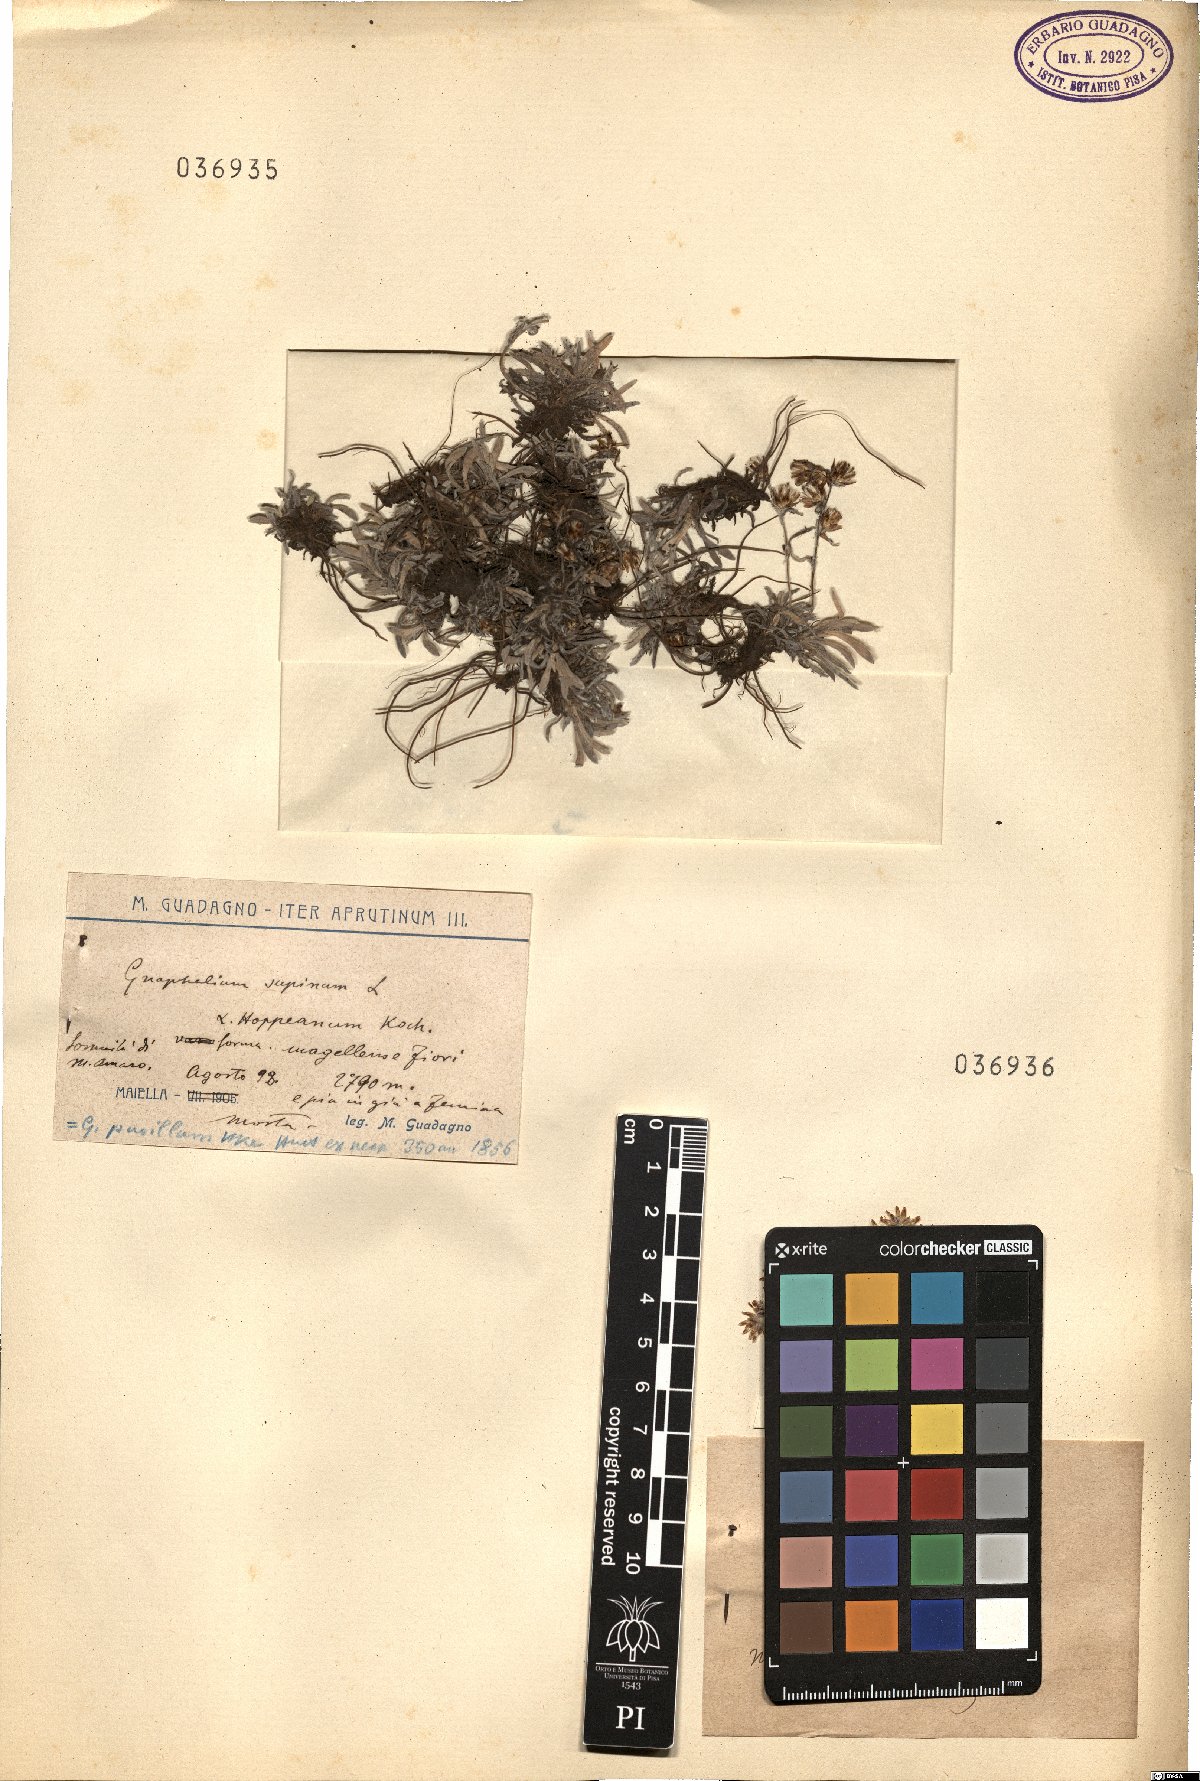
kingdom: Plantae
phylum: Tracheophyta
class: Magnoliopsida
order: Asterales
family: Asteraceae
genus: Omalotheca
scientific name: Omalotheca diminuta
